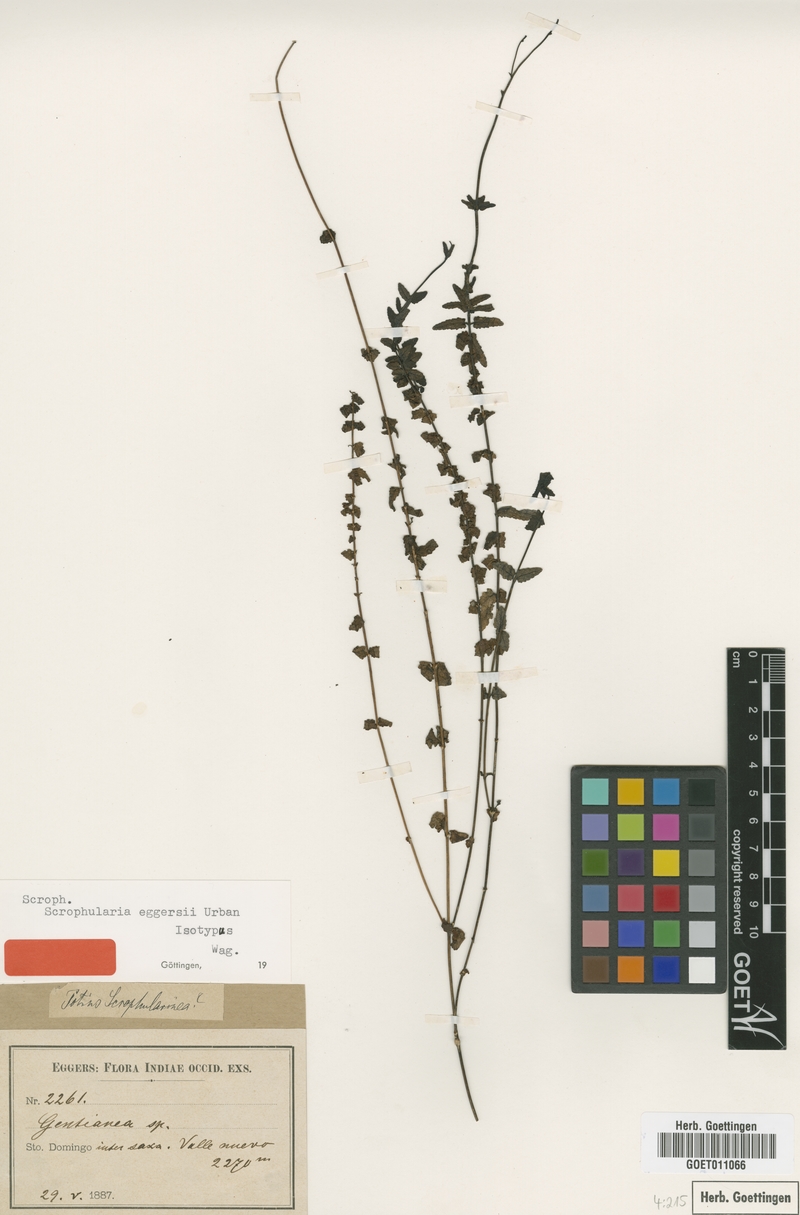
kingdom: Plantae
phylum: Tracheophyta
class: Magnoliopsida
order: Lamiales
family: Scrophulariaceae
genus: Scrophularia
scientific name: Scrophularia eggersii
